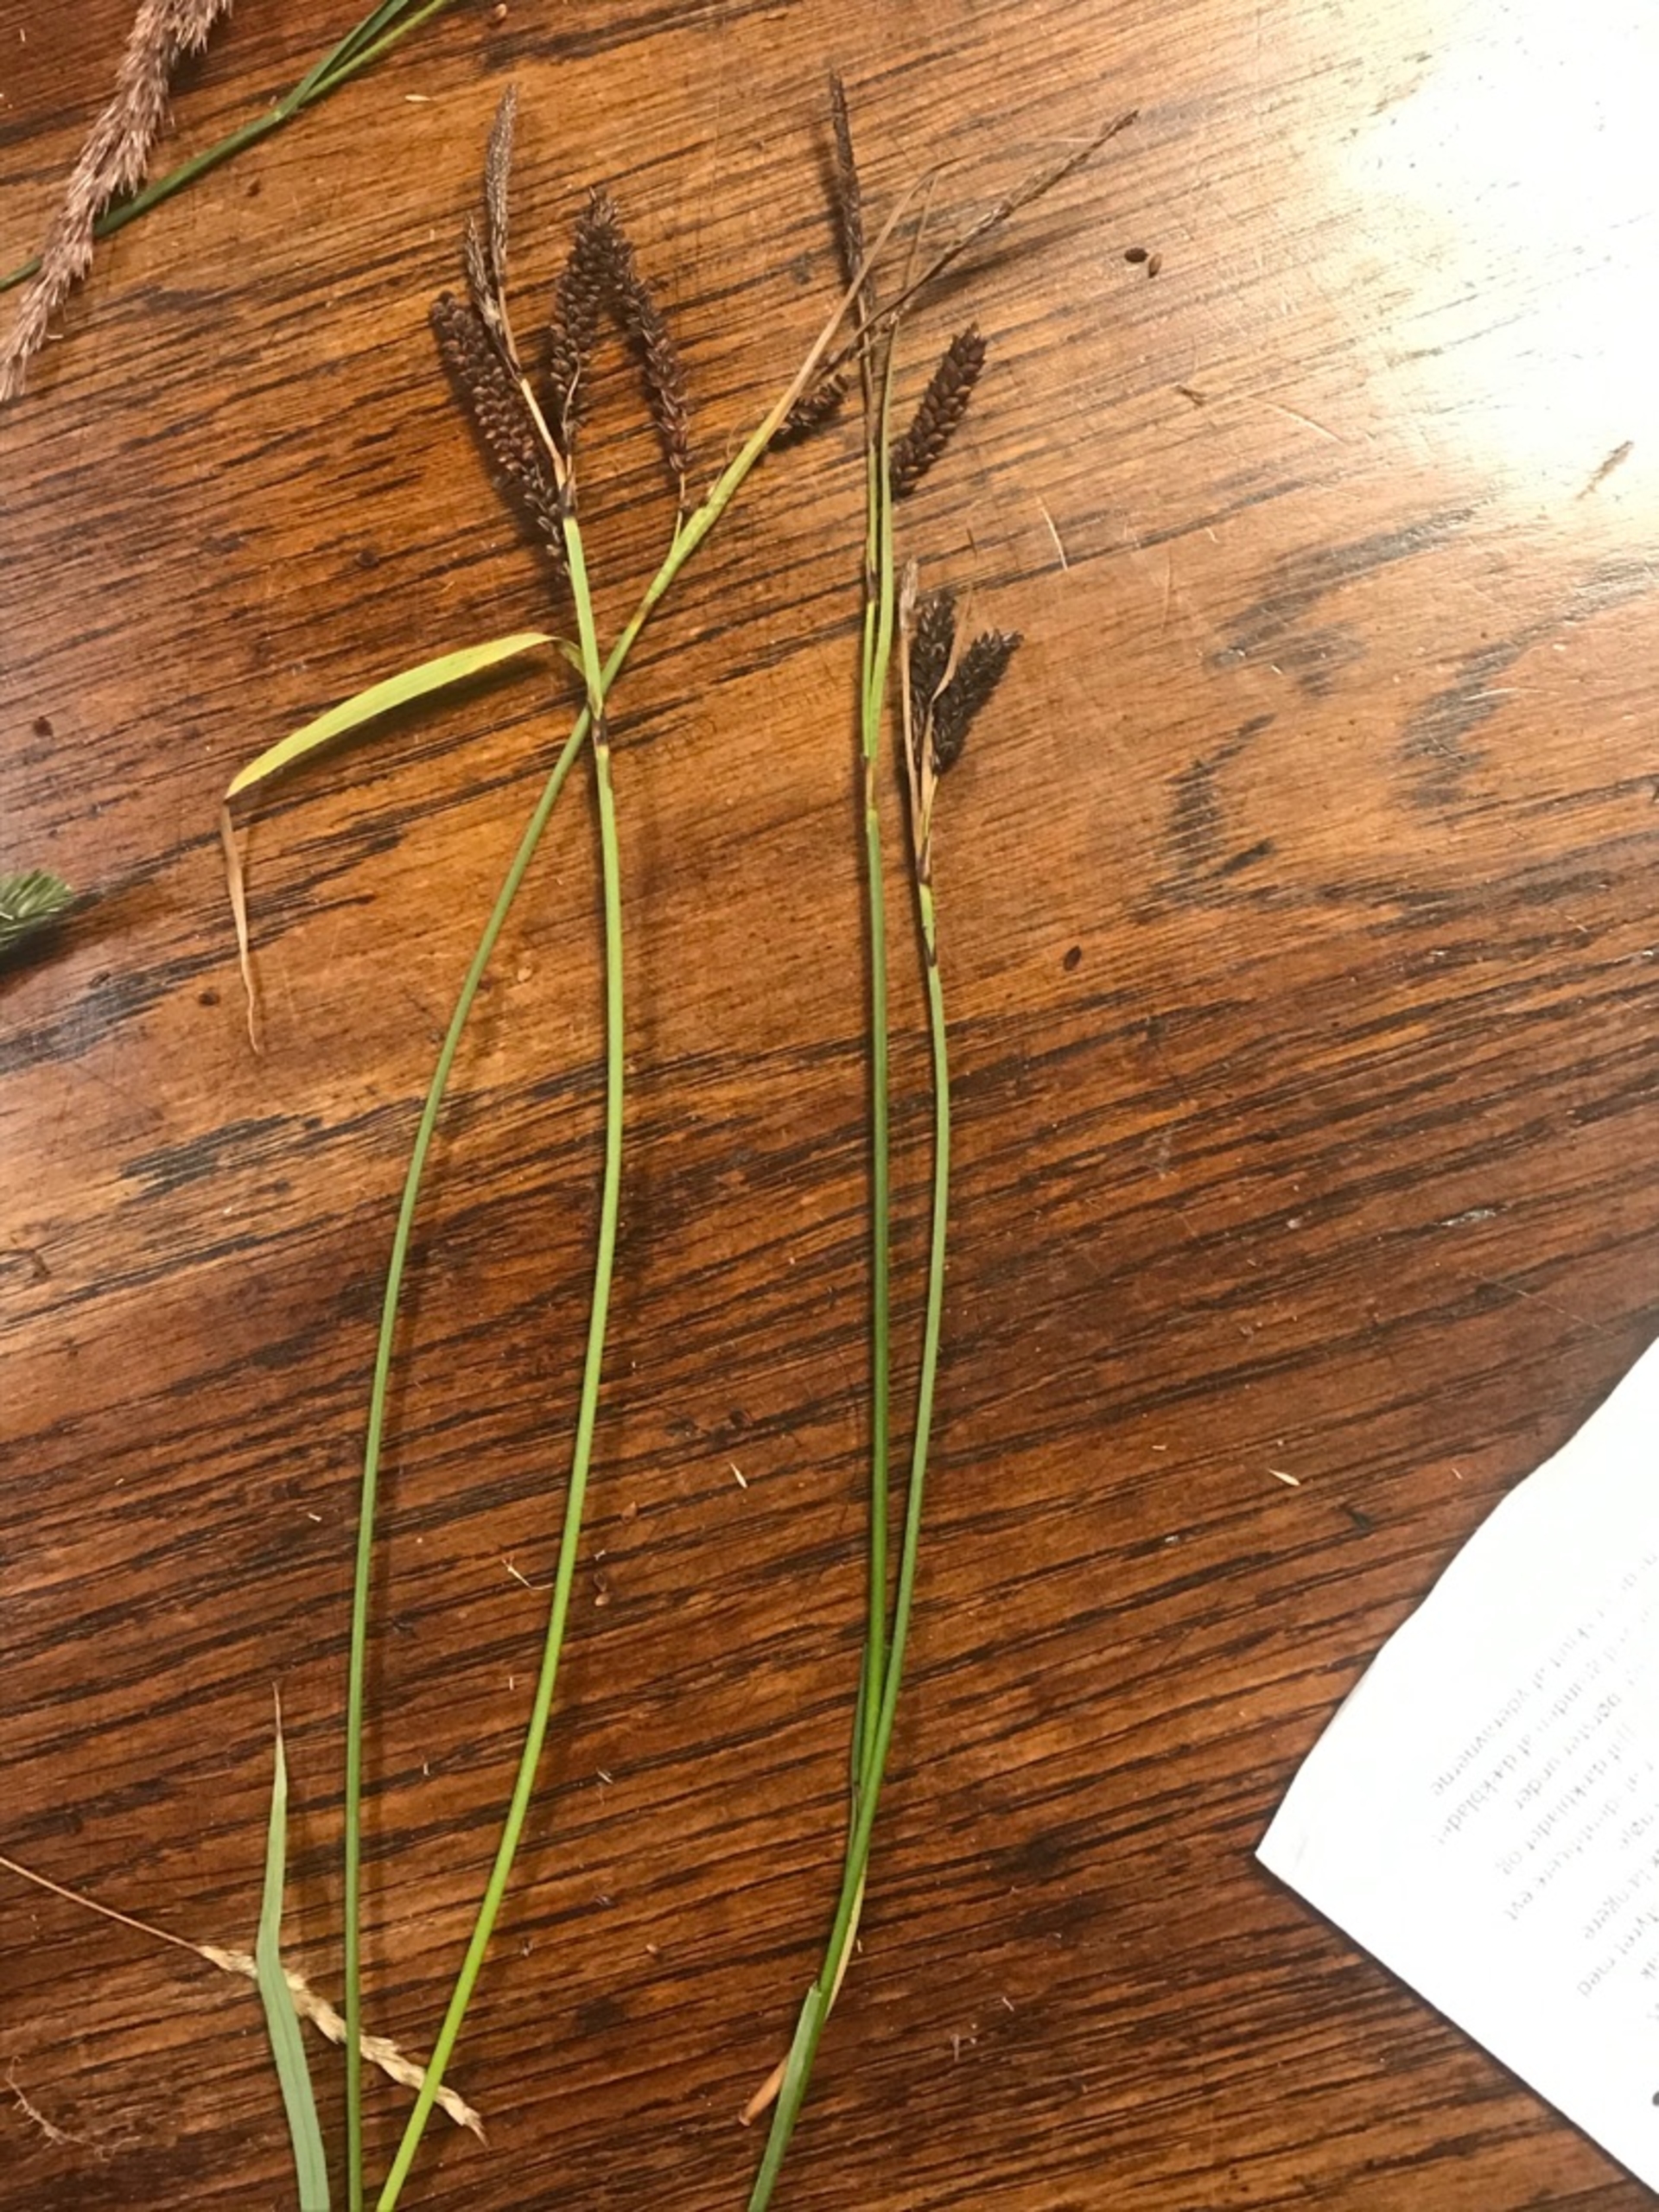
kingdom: Plantae
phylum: Tracheophyta
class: Liliopsida
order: Poales
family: Cyperaceae
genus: Carex
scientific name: Carex flacca
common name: Blågrøn star
